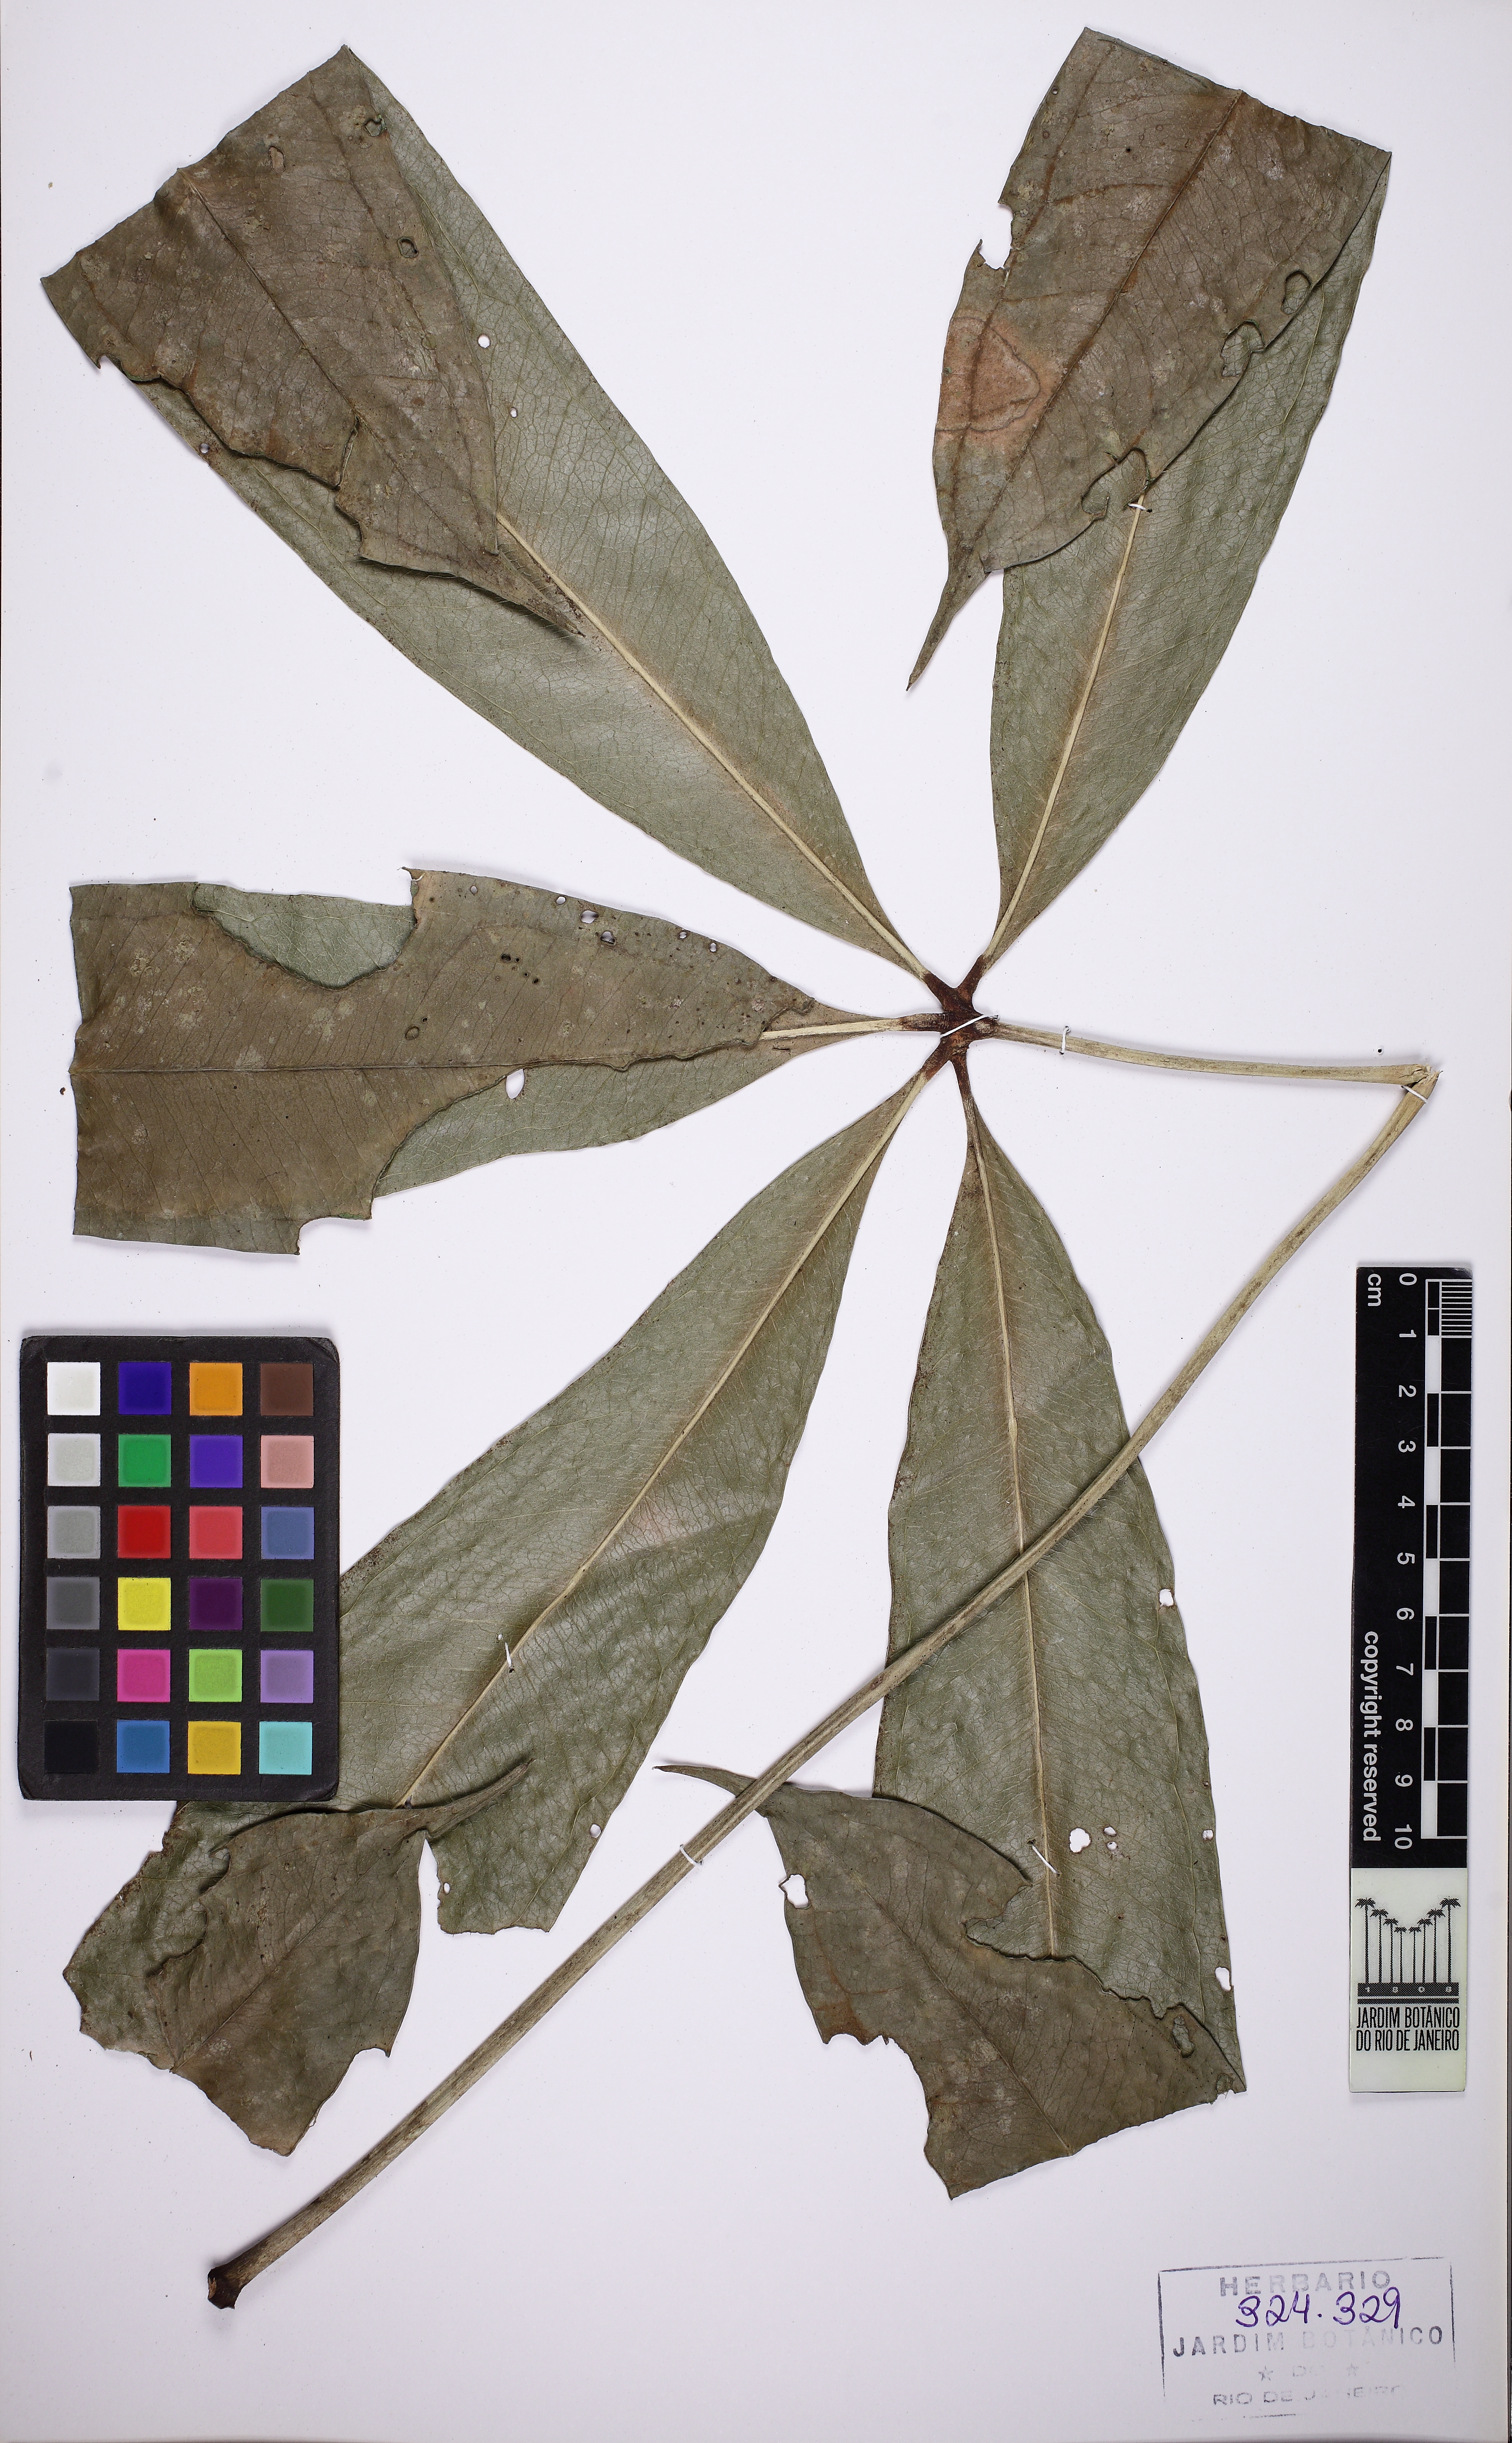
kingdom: Plantae
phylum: Tracheophyta
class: Liliopsida
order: Alismatales
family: Araceae
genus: Anthurium
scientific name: Anthurium pentaphyllum
